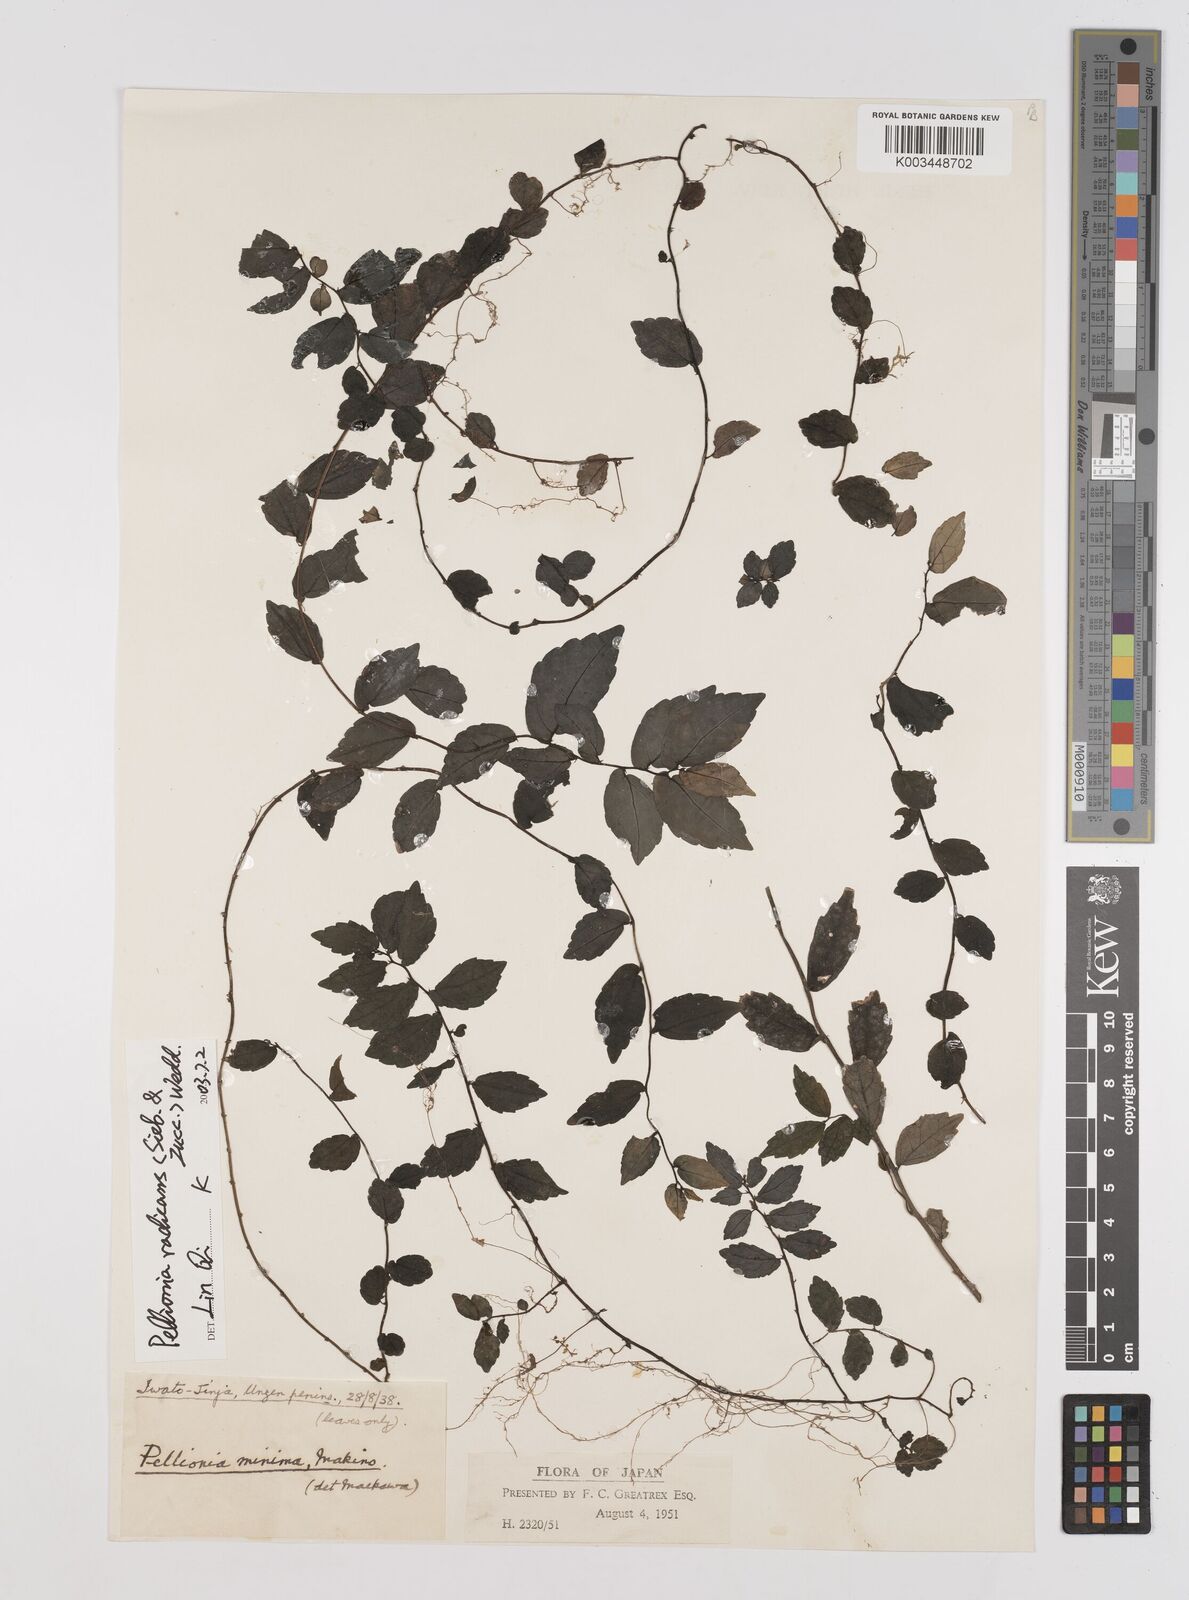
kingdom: Plantae
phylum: Tracheophyta
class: Magnoliopsida
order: Rosales
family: Urticaceae
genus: Elatostema
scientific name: Elatostema radicans
